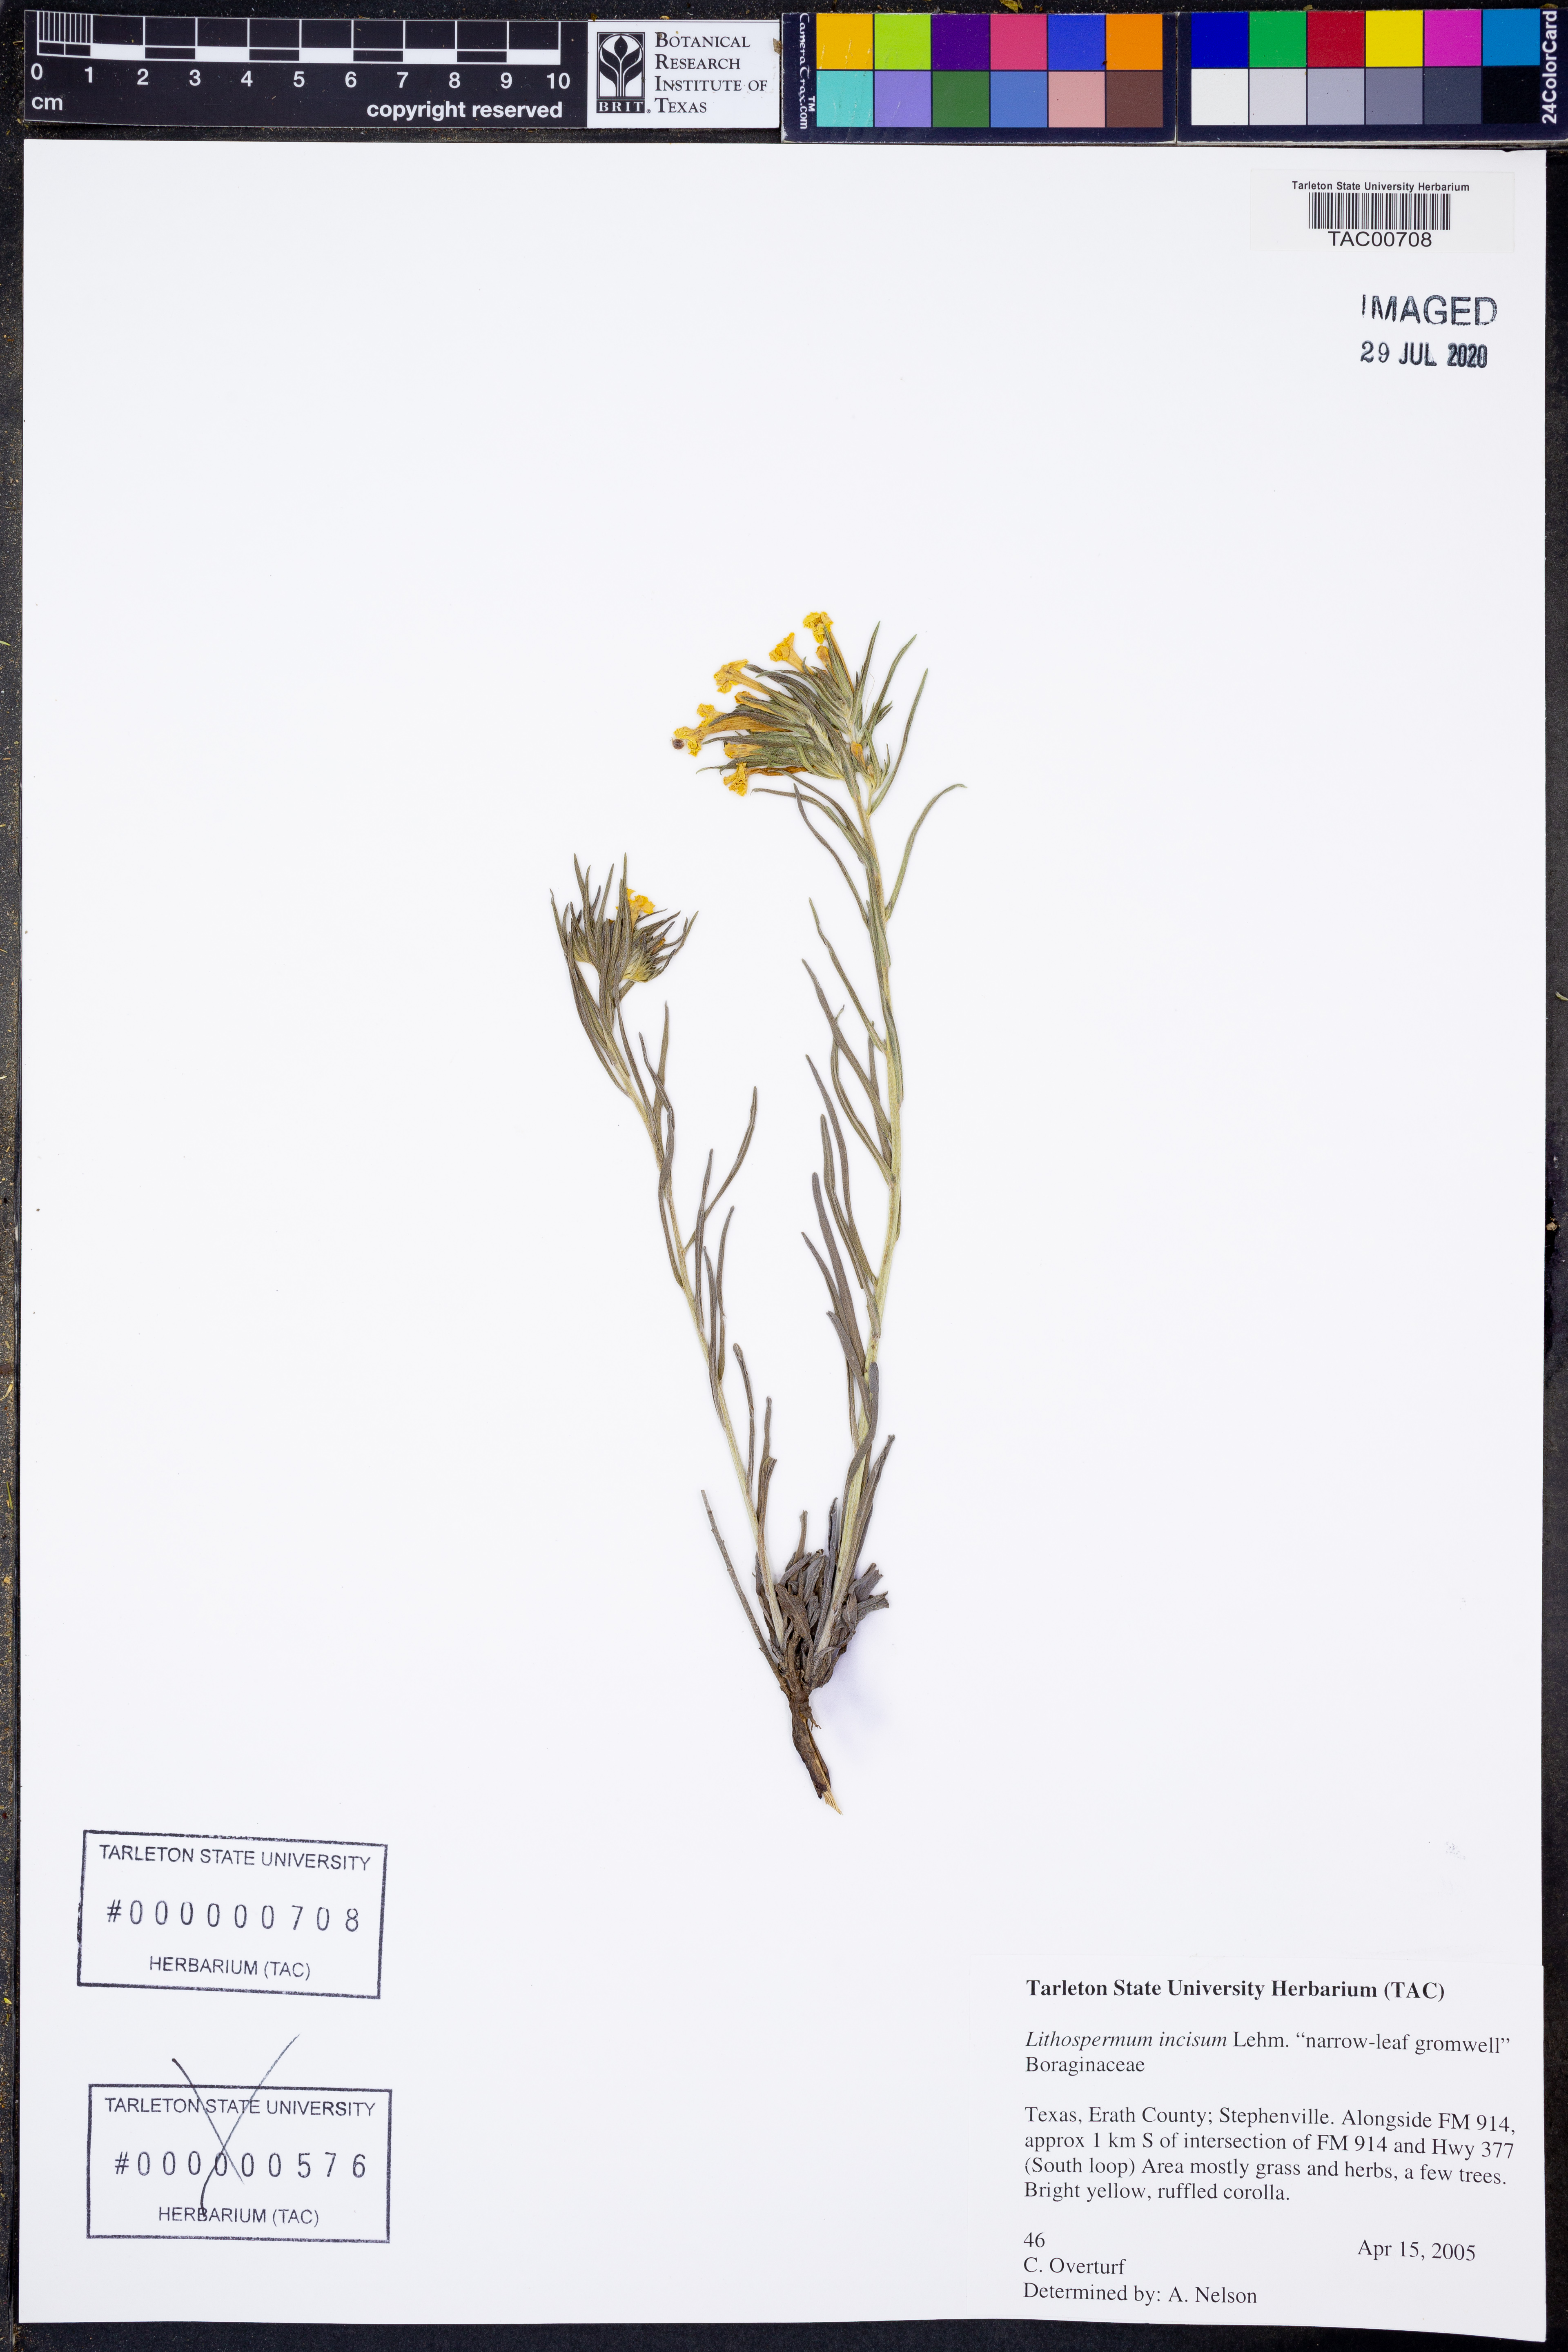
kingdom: Plantae
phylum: Tracheophyta
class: Magnoliopsida
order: Boraginales
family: Boraginaceae
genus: Lithospermum
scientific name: Lithospermum incisum
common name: Fringed gromwell
